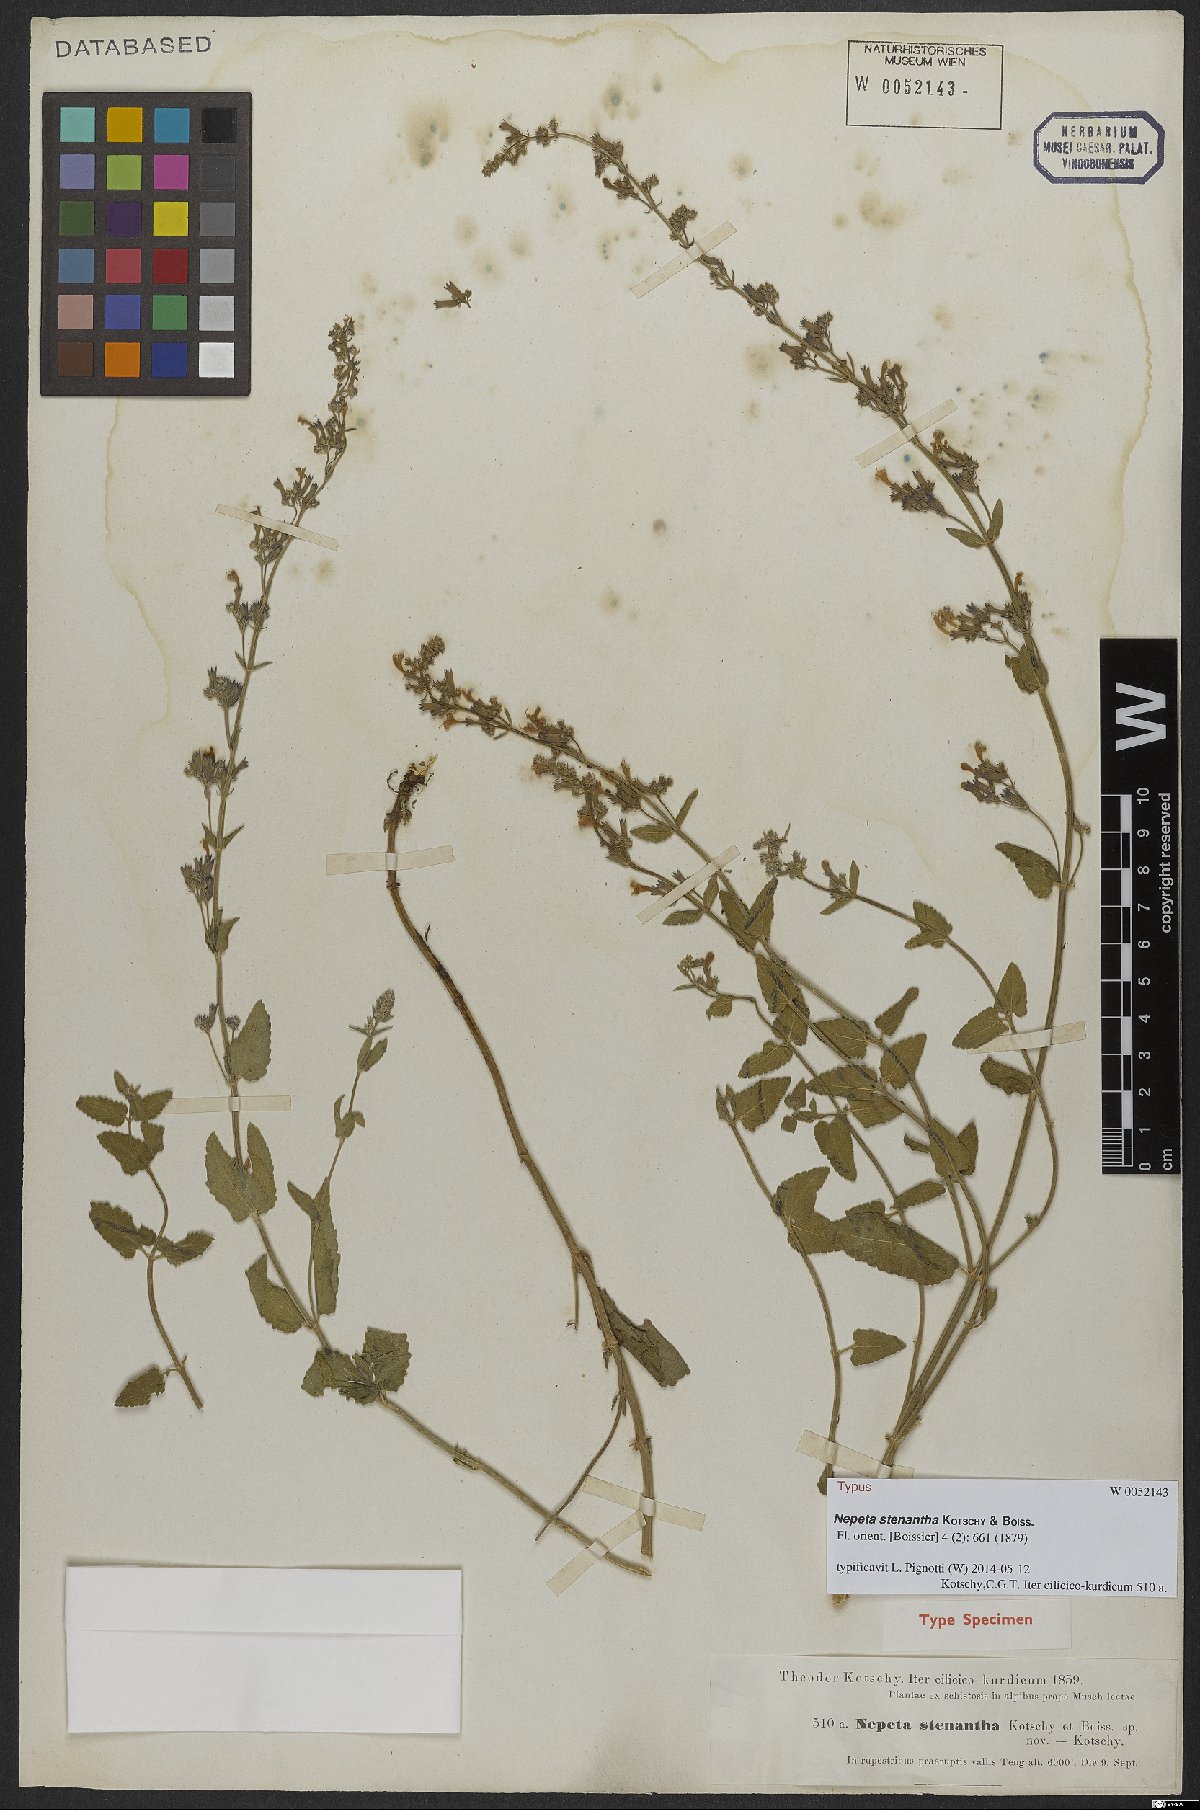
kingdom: Plantae
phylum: Tracheophyta
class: Magnoliopsida
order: Lamiales
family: Lamiaceae
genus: Nepeta
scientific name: Nepeta stenantha
